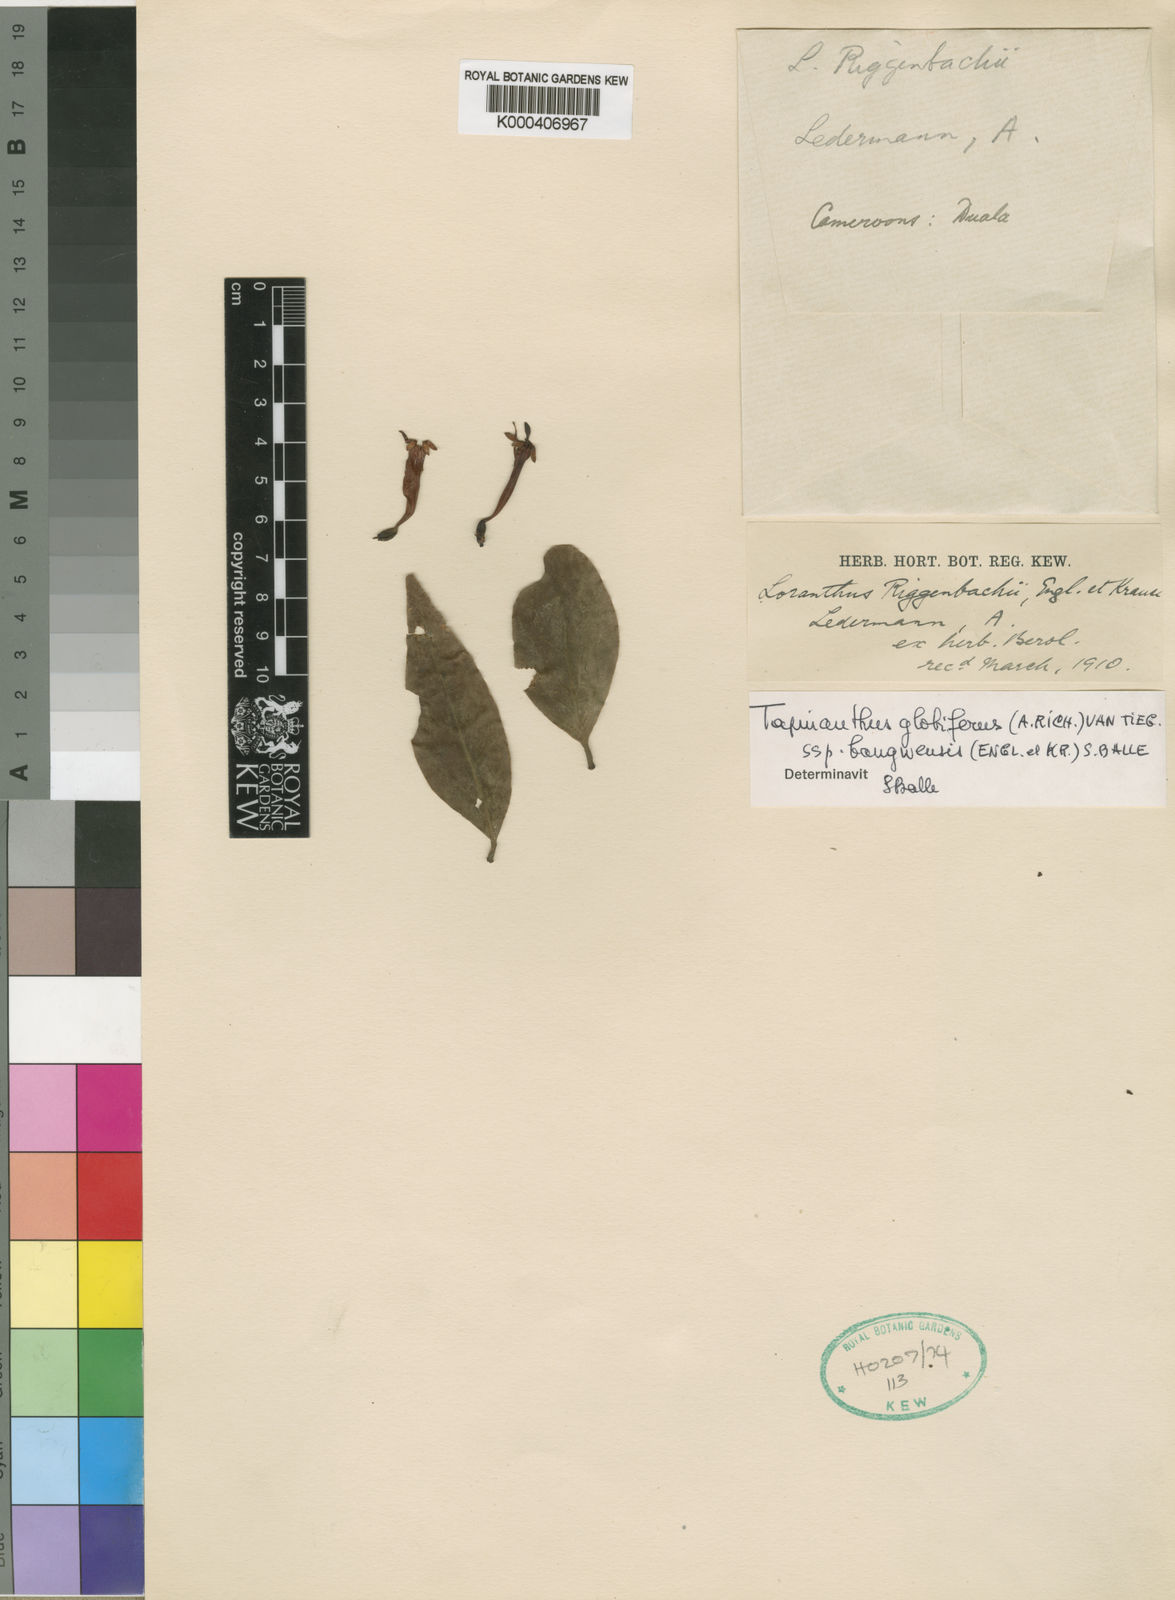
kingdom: Plantae
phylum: Tracheophyta
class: Magnoliopsida
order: Santalales
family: Loranthaceae
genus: Tapinanthus
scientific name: Tapinanthus bangwensis
